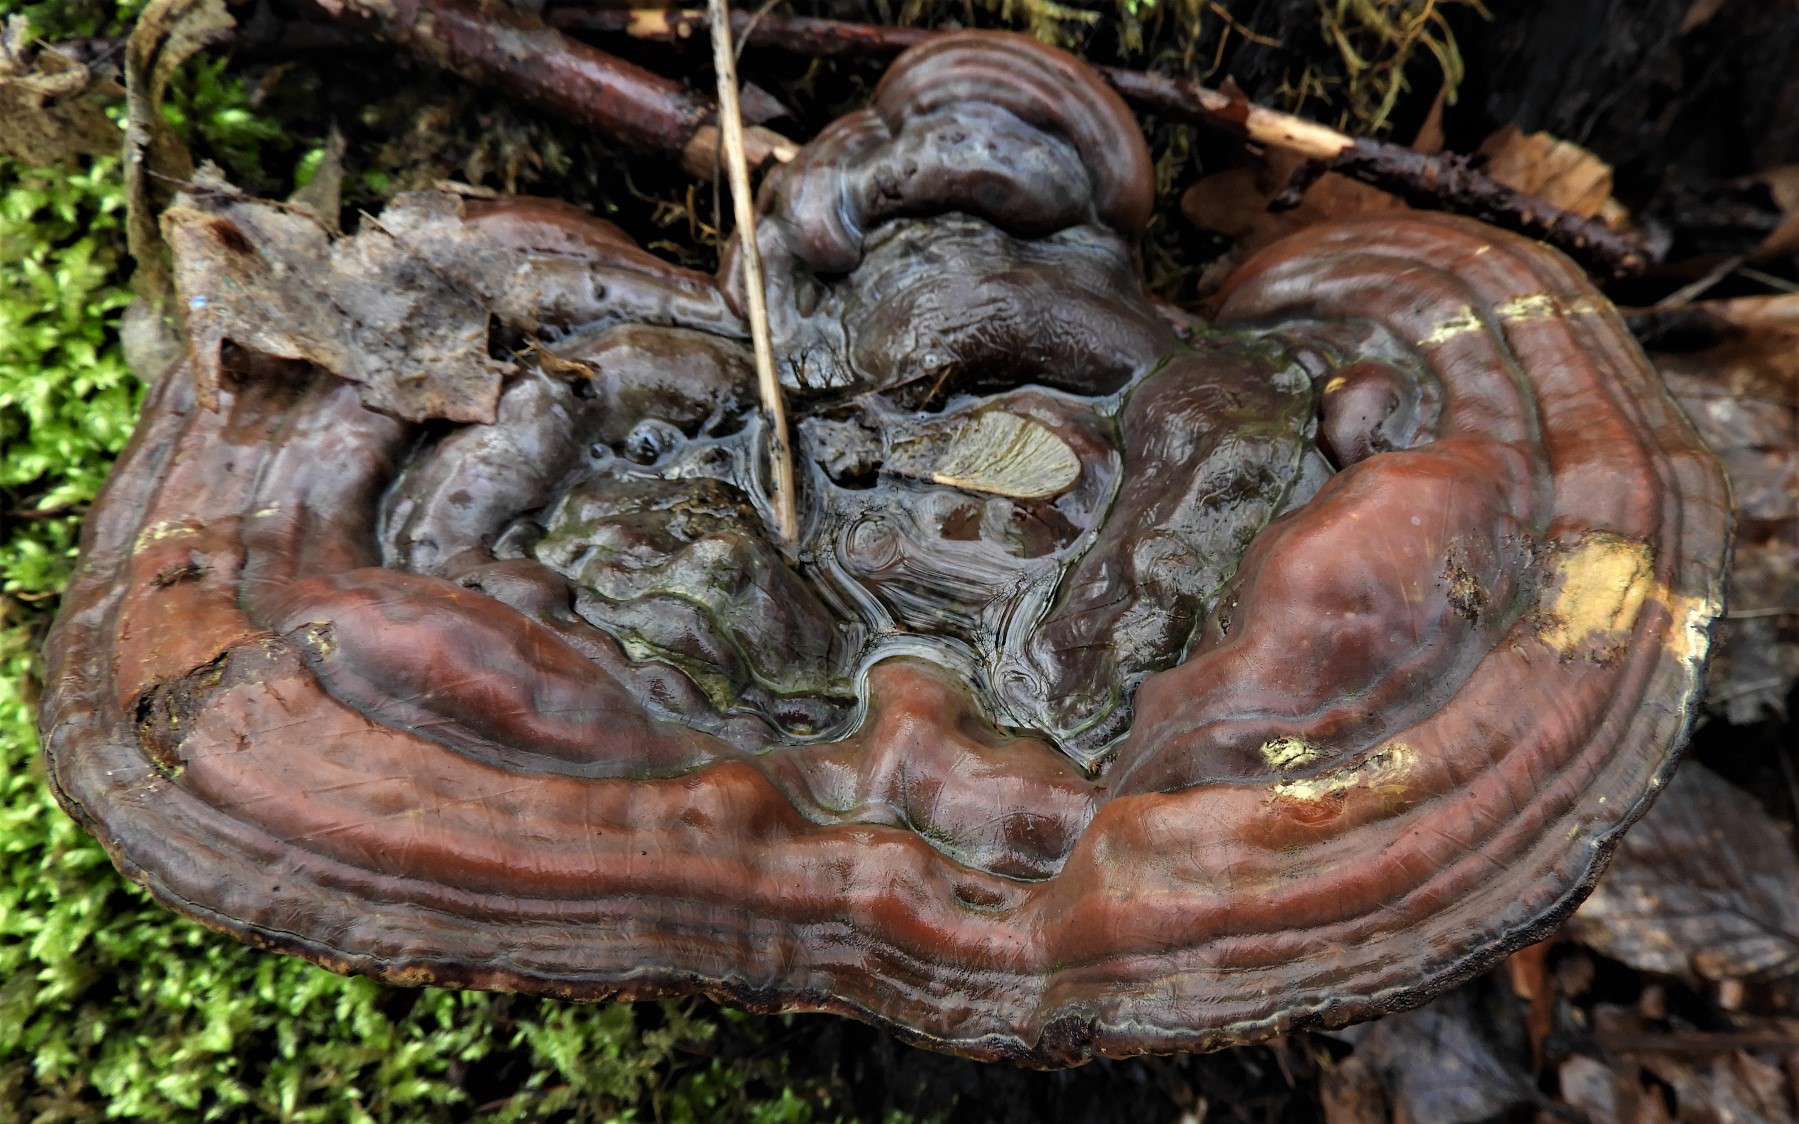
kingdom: Fungi
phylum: Basidiomycota
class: Agaricomycetes
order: Polyporales
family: Polyporaceae
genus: Ganoderma
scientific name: Ganoderma applanatum
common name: flad lakporesvamp
